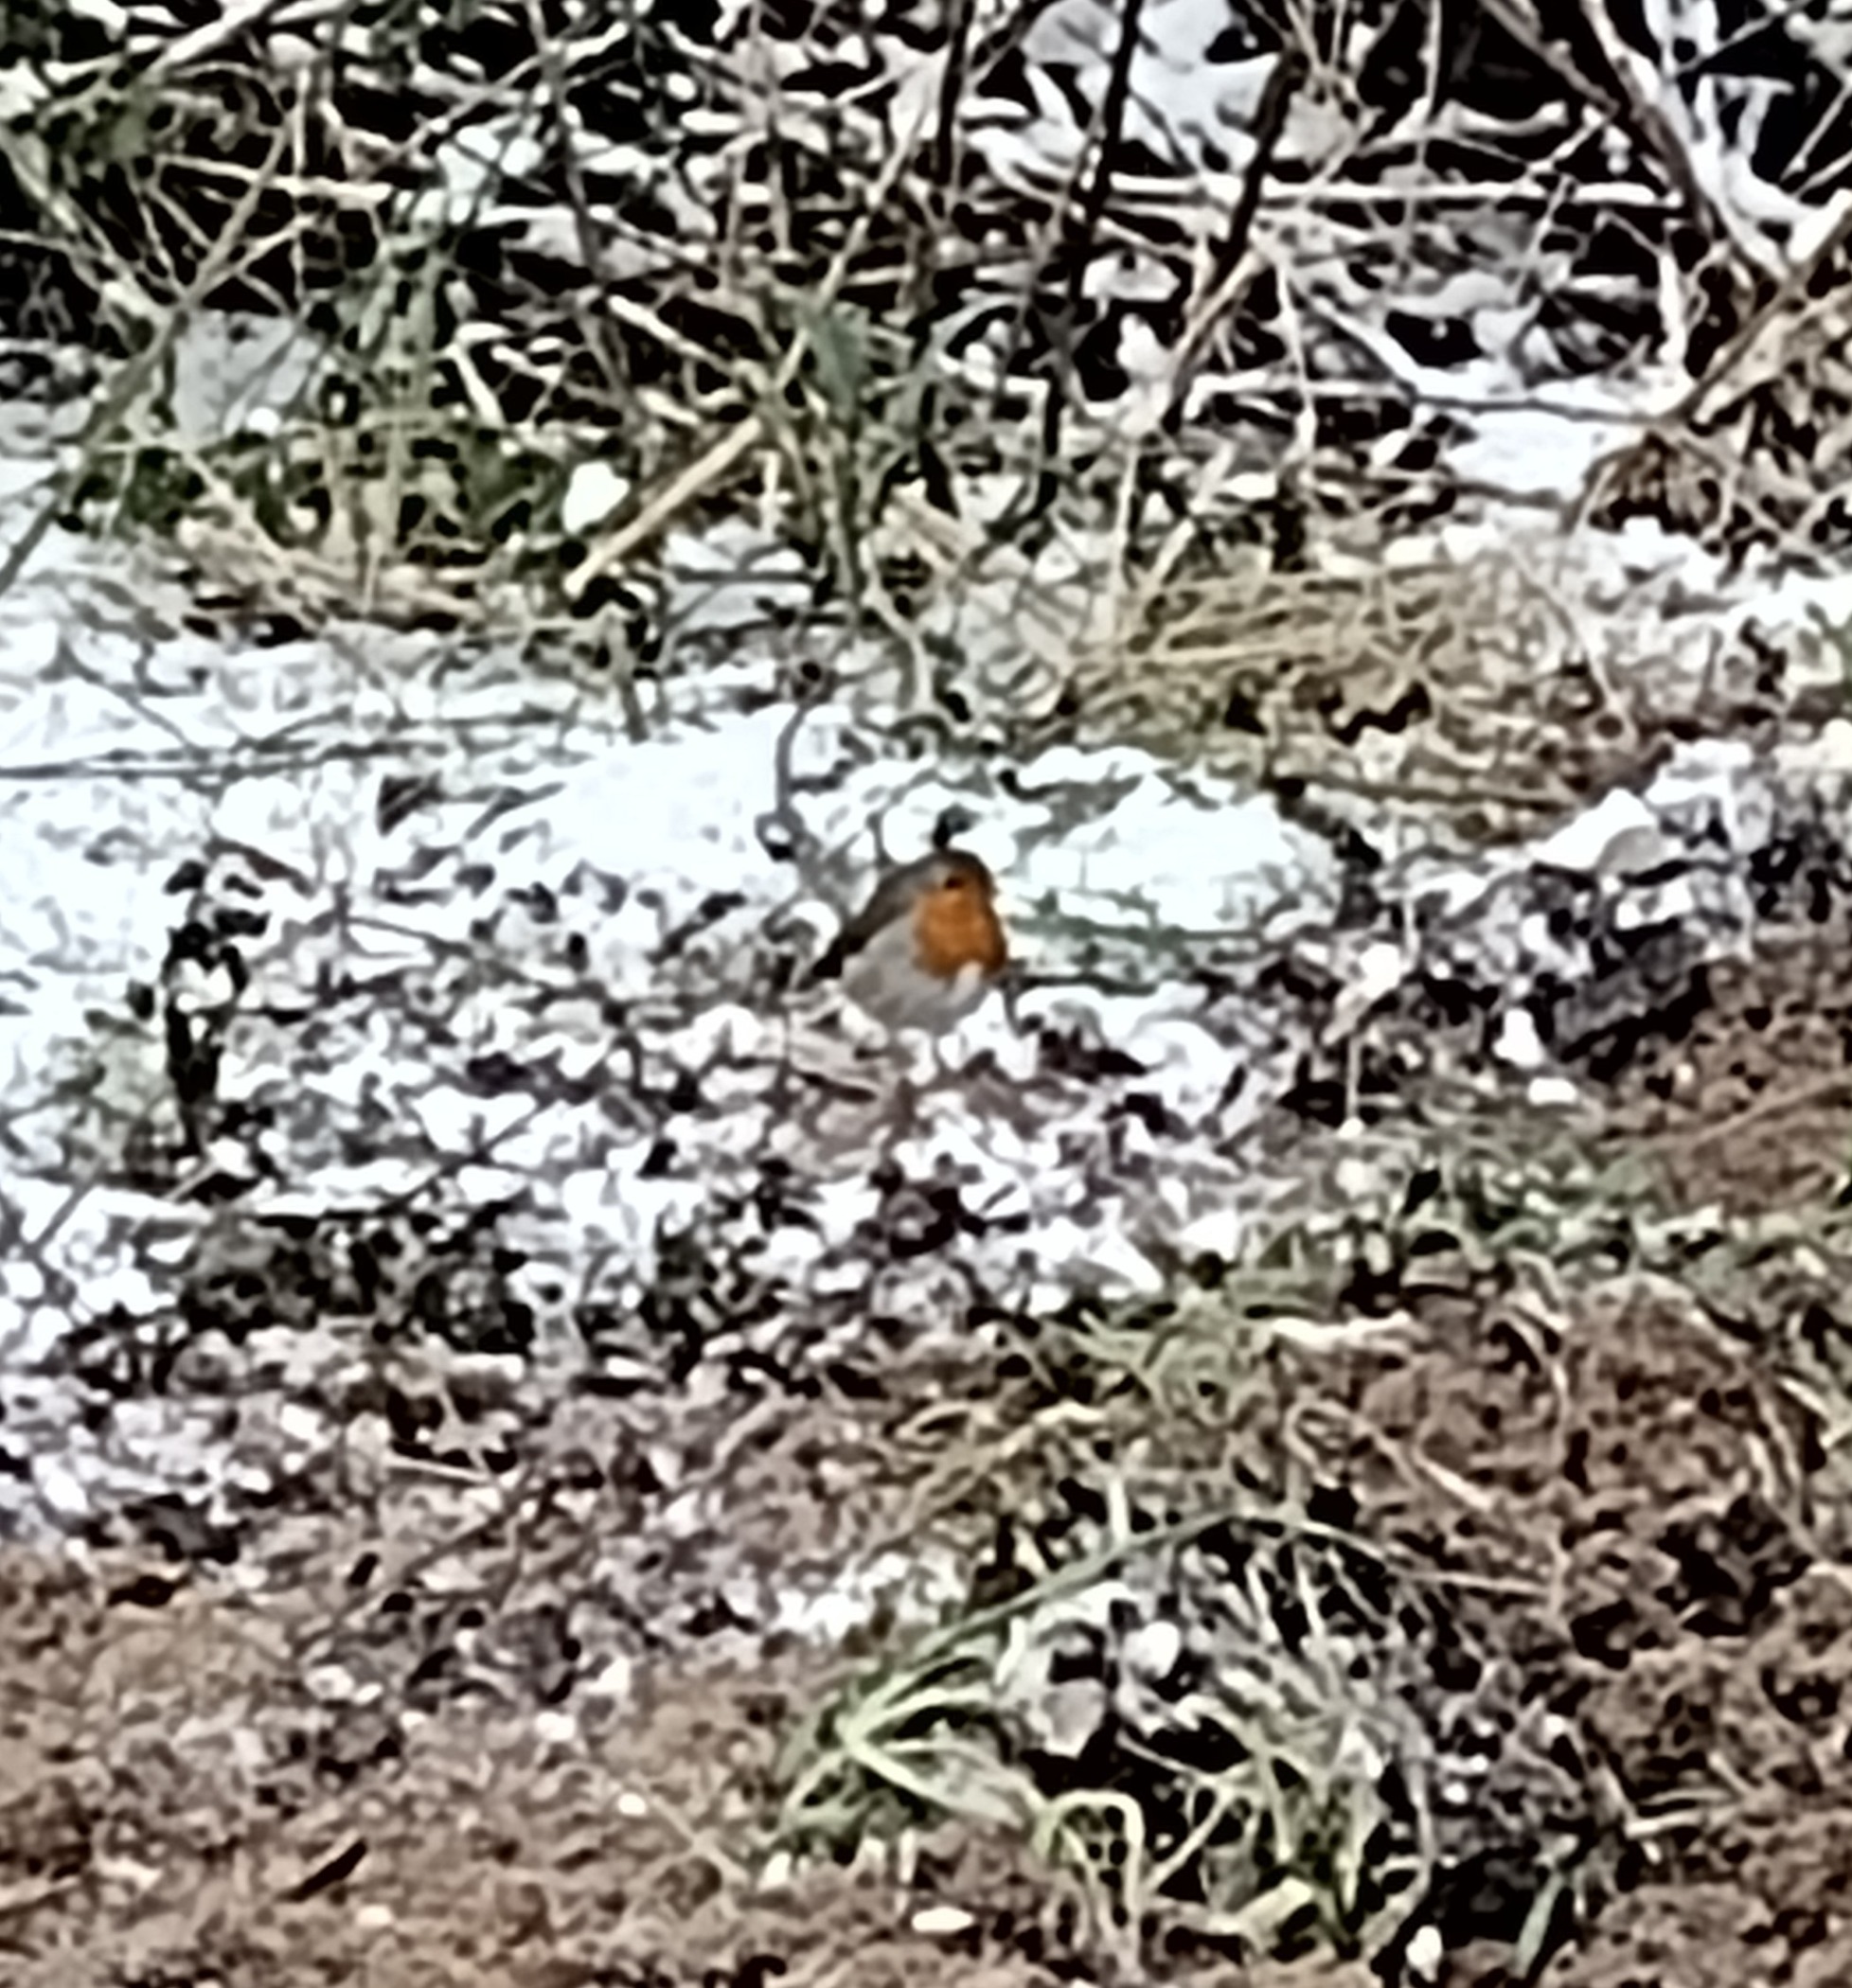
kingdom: Animalia
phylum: Chordata
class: Aves
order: Passeriformes
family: Muscicapidae
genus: Erithacus
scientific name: Erithacus rubecula
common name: Rødhals/rødkælk
